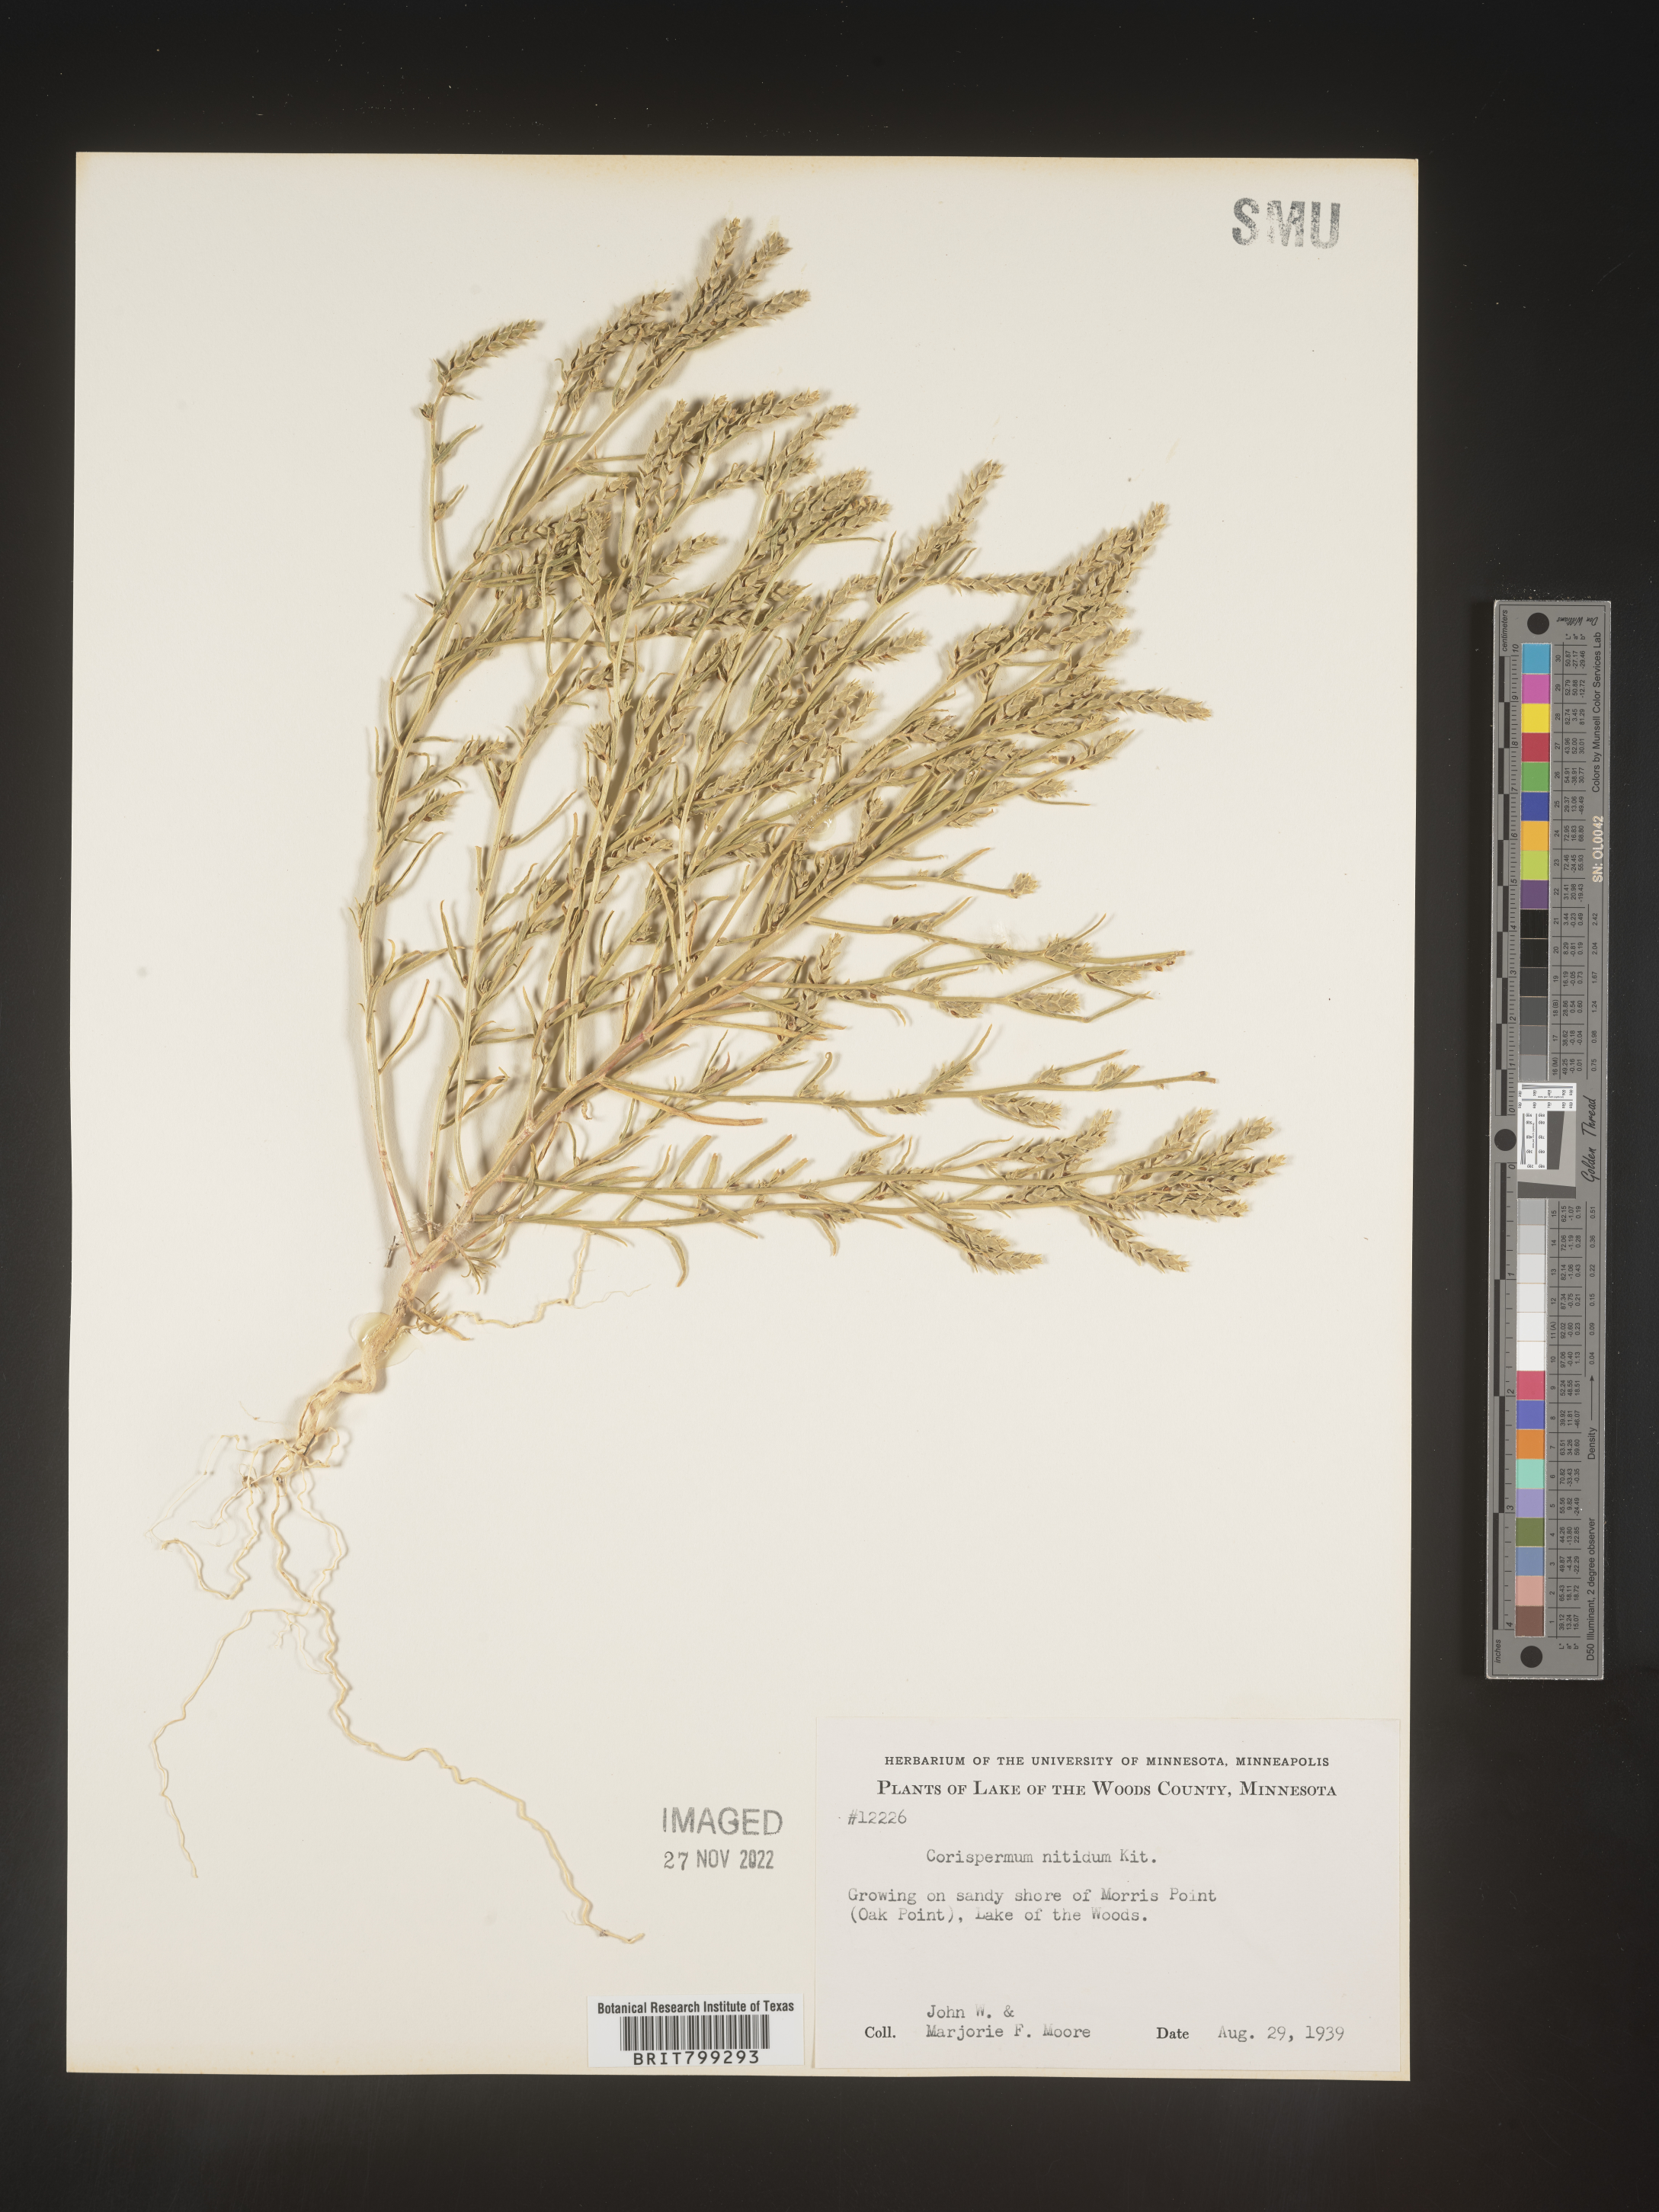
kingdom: Plantae
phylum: Tracheophyta
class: Magnoliopsida
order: Caryophyllales
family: Amaranthaceae
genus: Corispermum
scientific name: Corispermum americanum
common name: American bugseed
